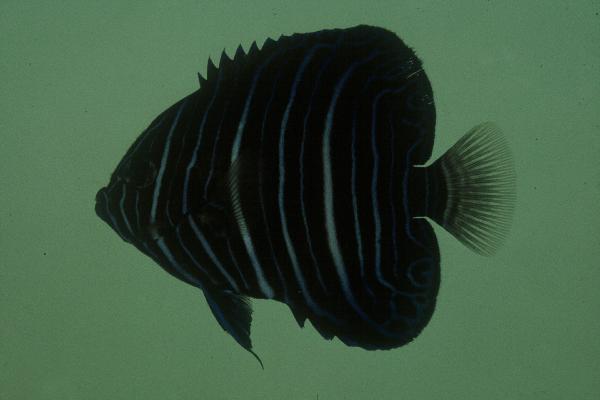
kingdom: Animalia
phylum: Chordata
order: Perciformes
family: Pomacanthidae
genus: Pomacanthus
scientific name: Pomacanthus rhomboides
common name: Old woman
